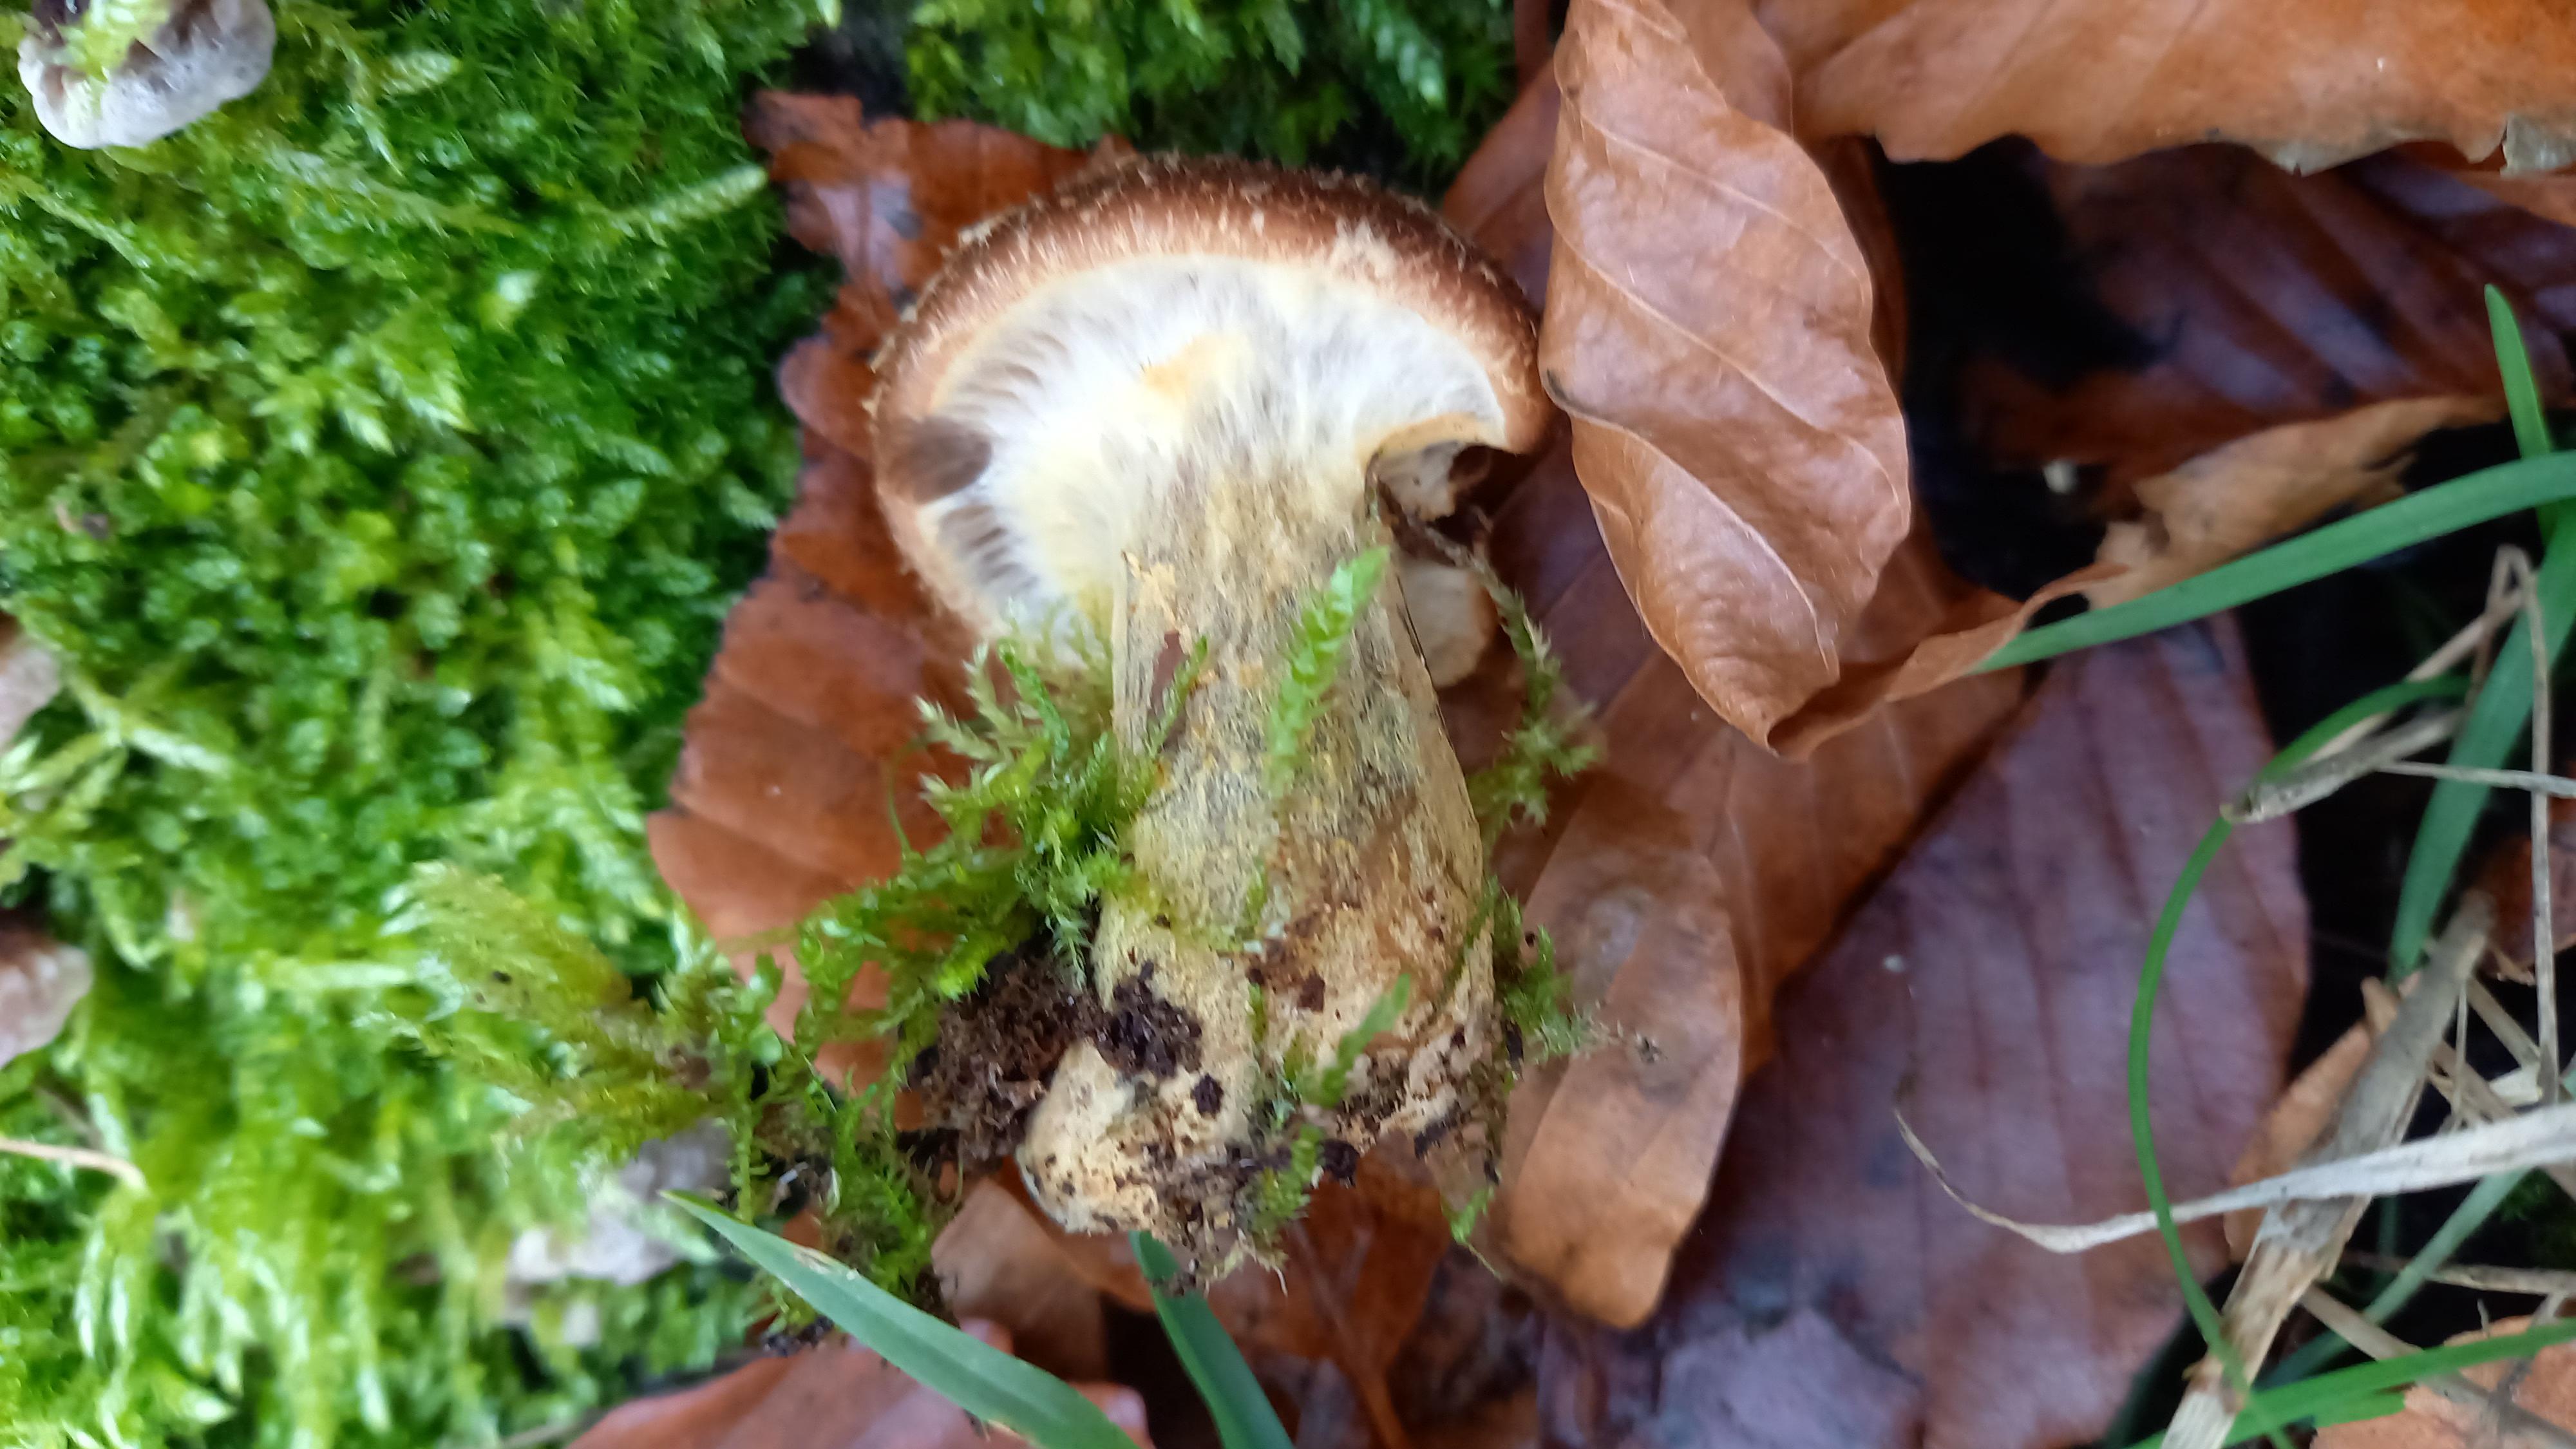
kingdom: Fungi
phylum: Basidiomycota
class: Agaricomycetes
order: Agaricales
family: Physalacriaceae
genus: Armillaria
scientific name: Armillaria lutea
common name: køllestokket honningsvamp
